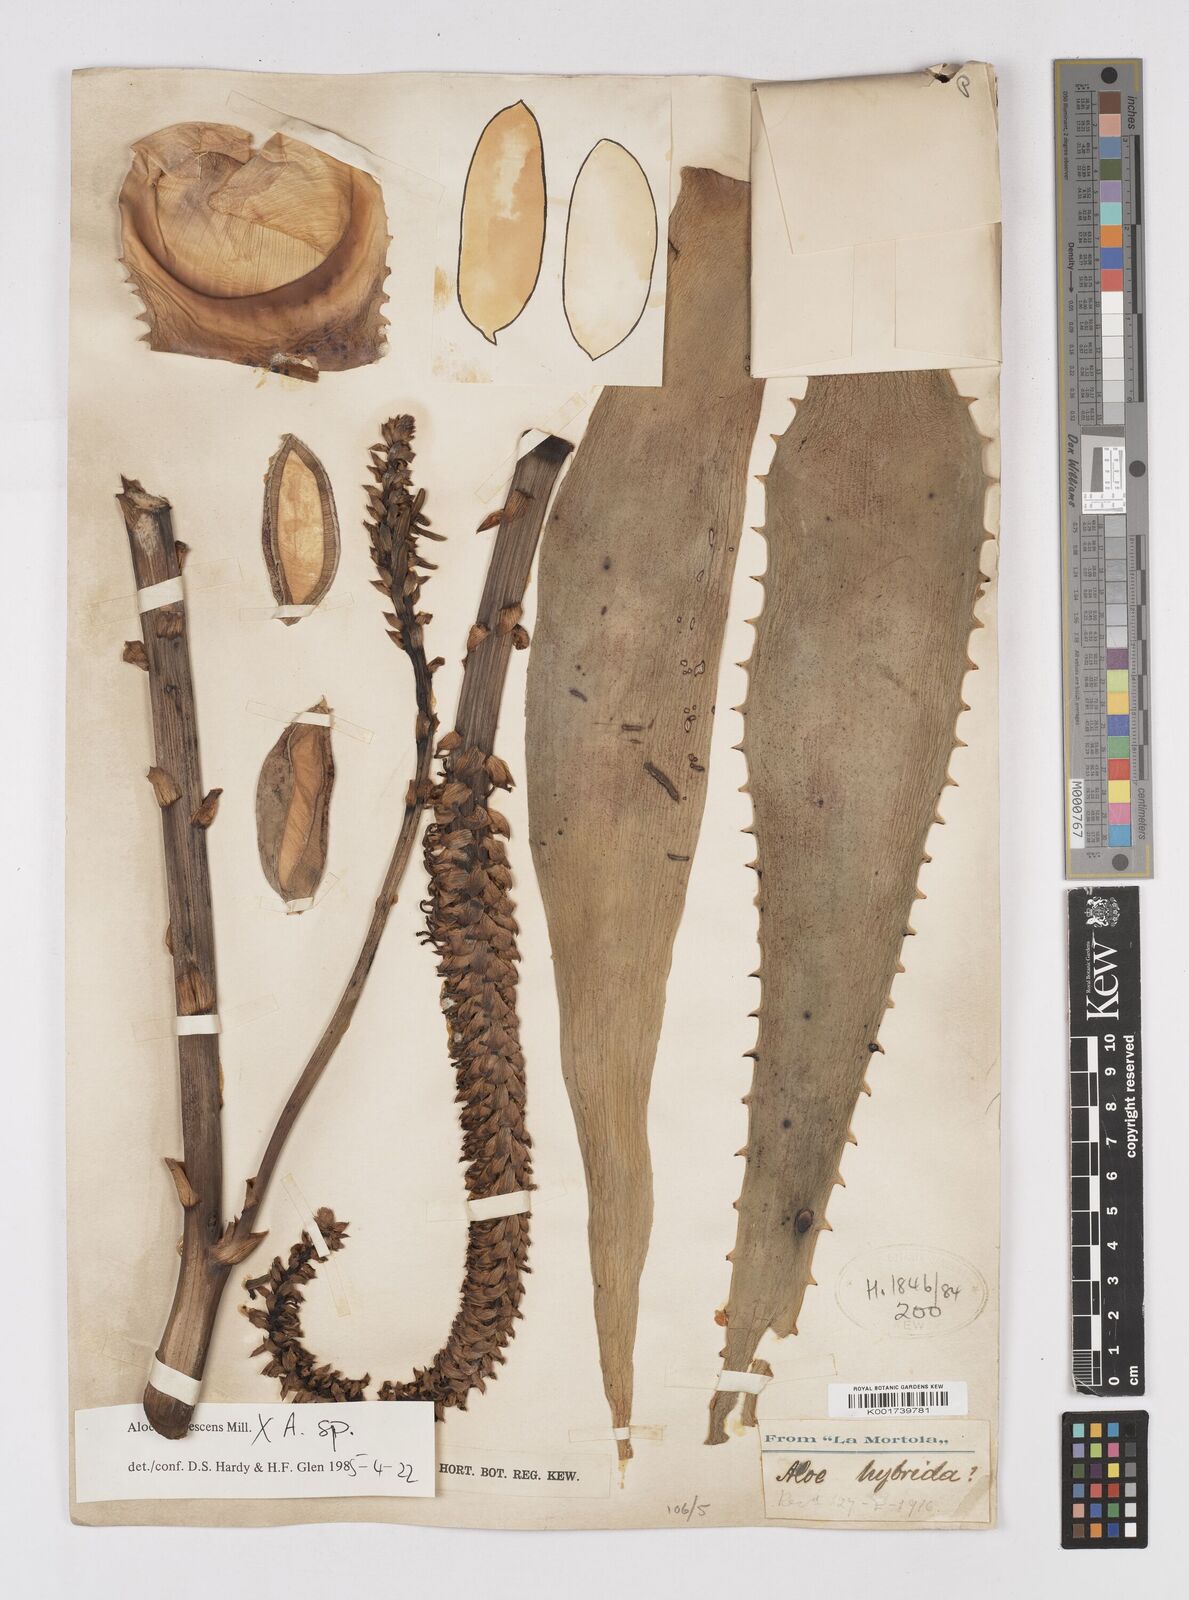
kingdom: Plantae
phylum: Tracheophyta
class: Liliopsida
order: Asparagales
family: Asphodelaceae
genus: Aloe
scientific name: Aloe arborescens
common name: Candelabra aloe
